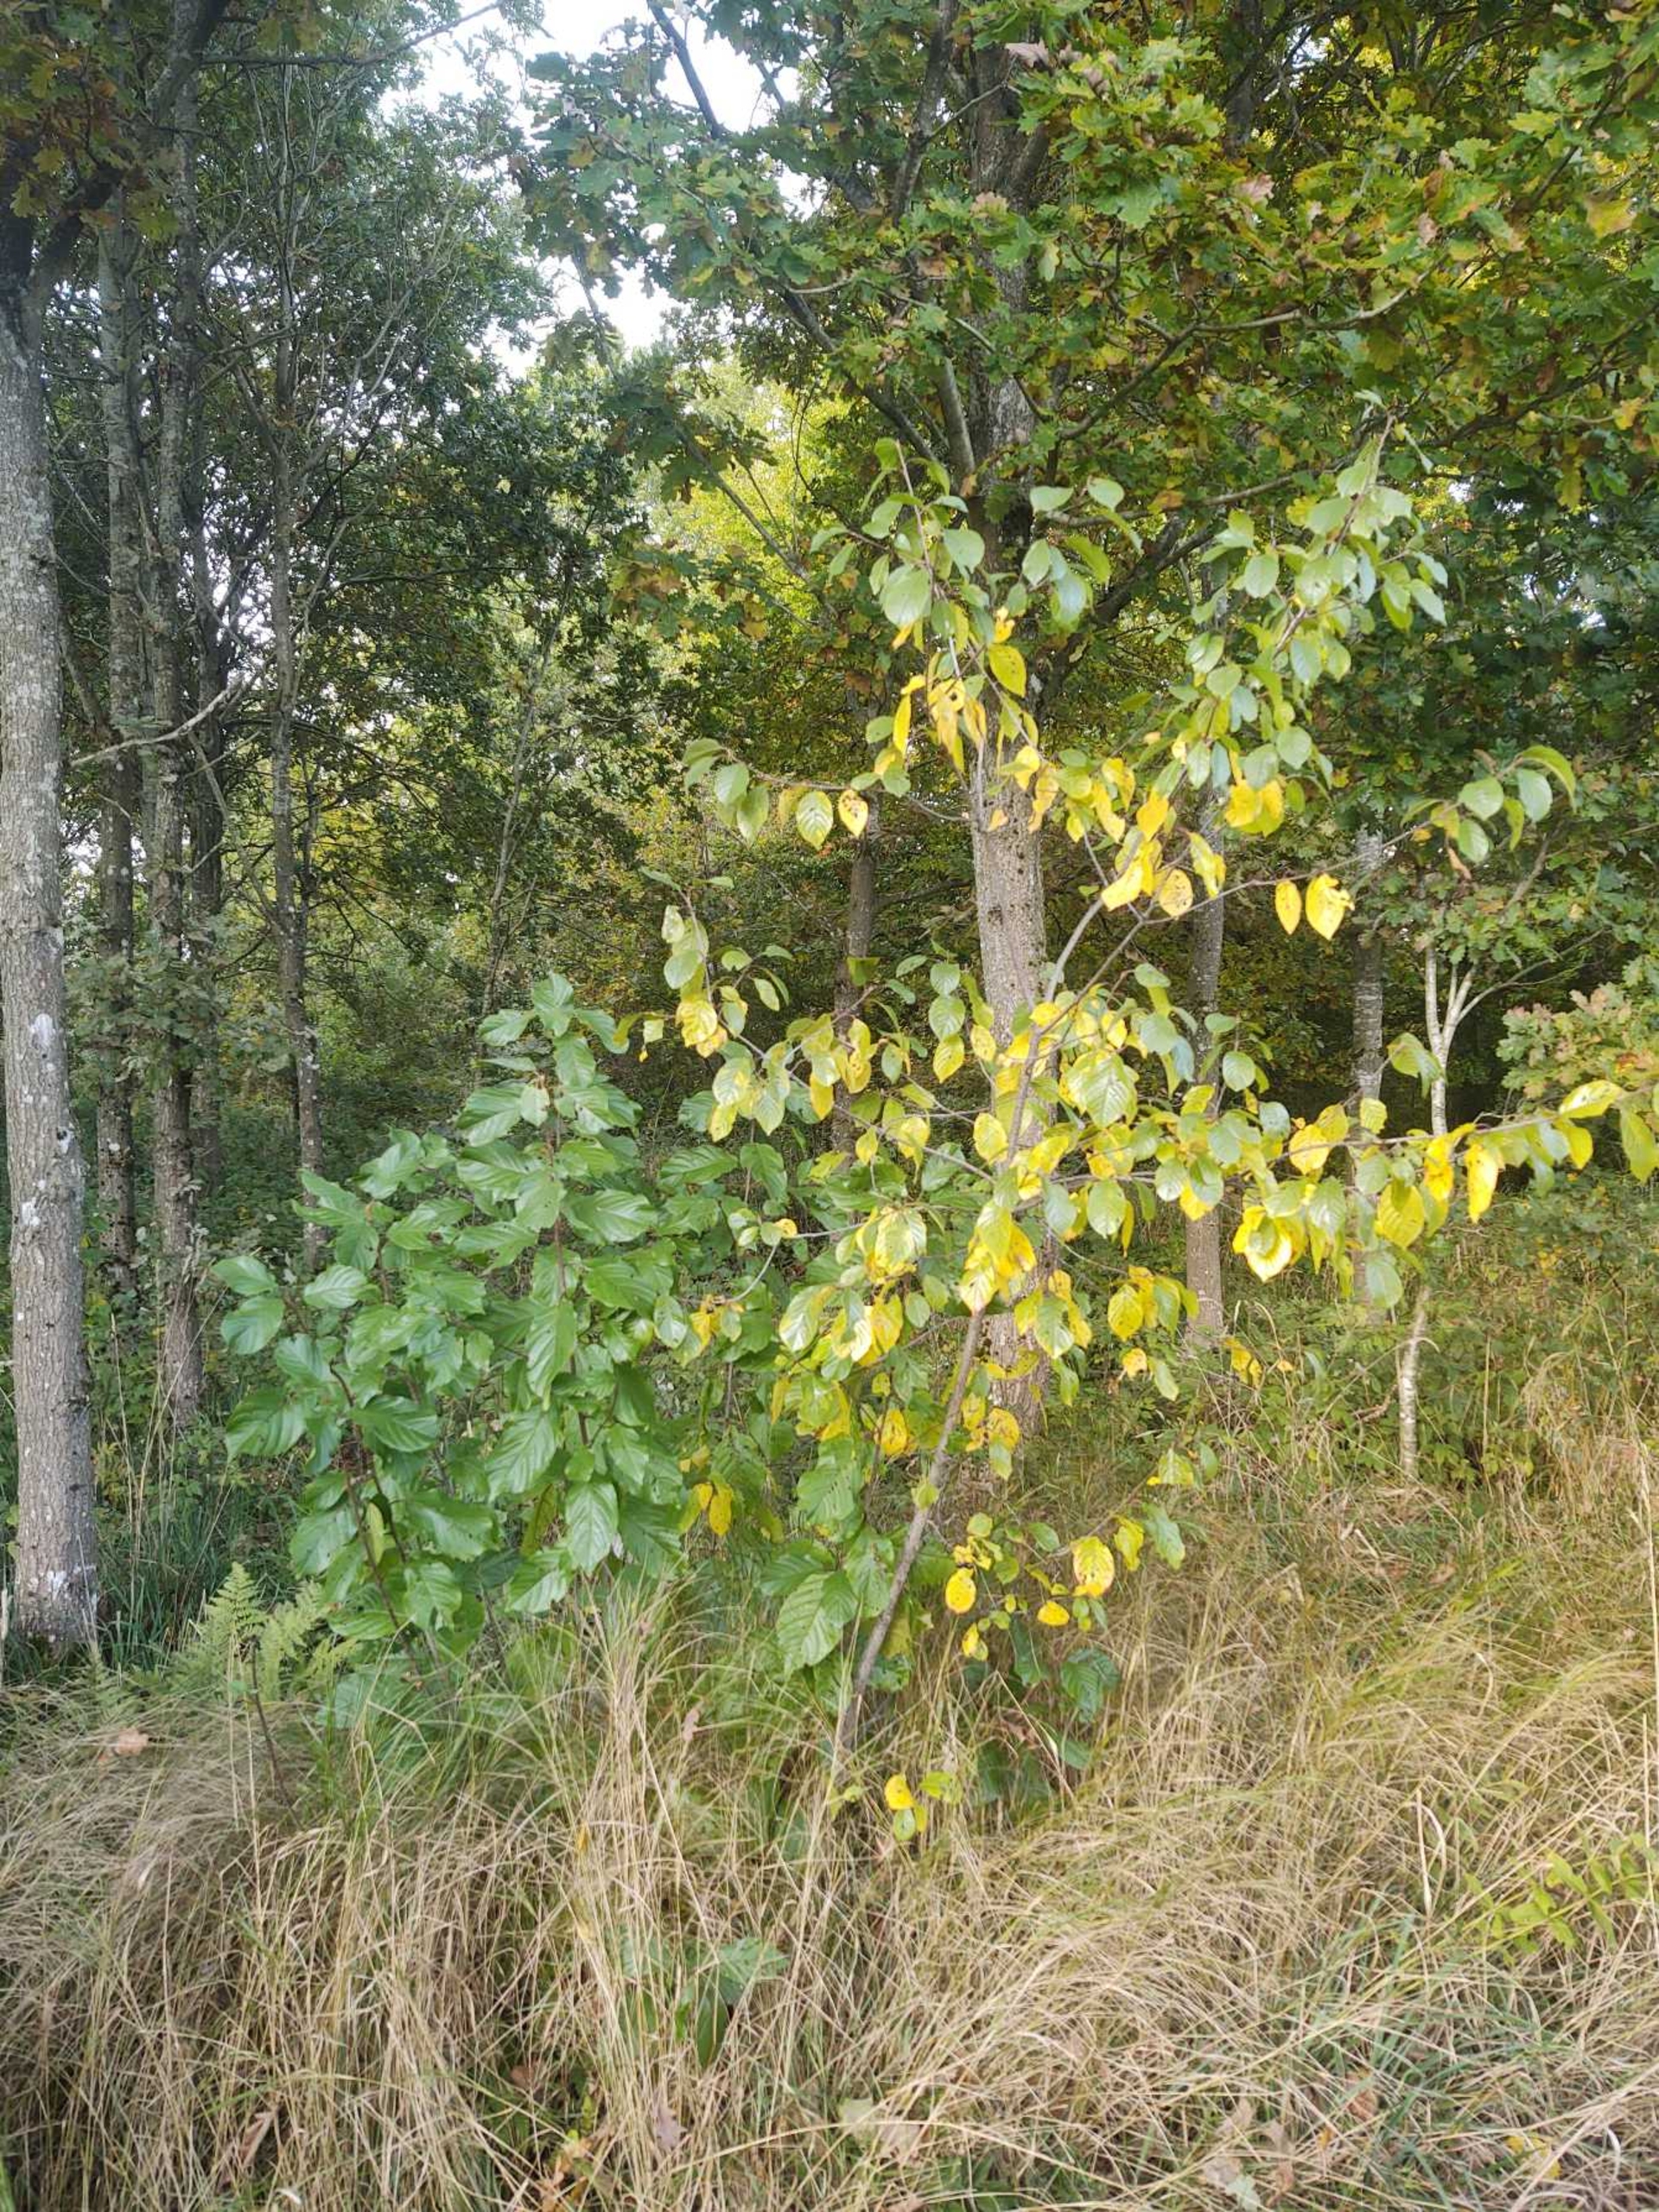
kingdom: Plantae
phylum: Tracheophyta
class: Magnoliopsida
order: Rosales
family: Rhamnaceae
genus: Frangula
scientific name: Frangula alnus
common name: Tørst
